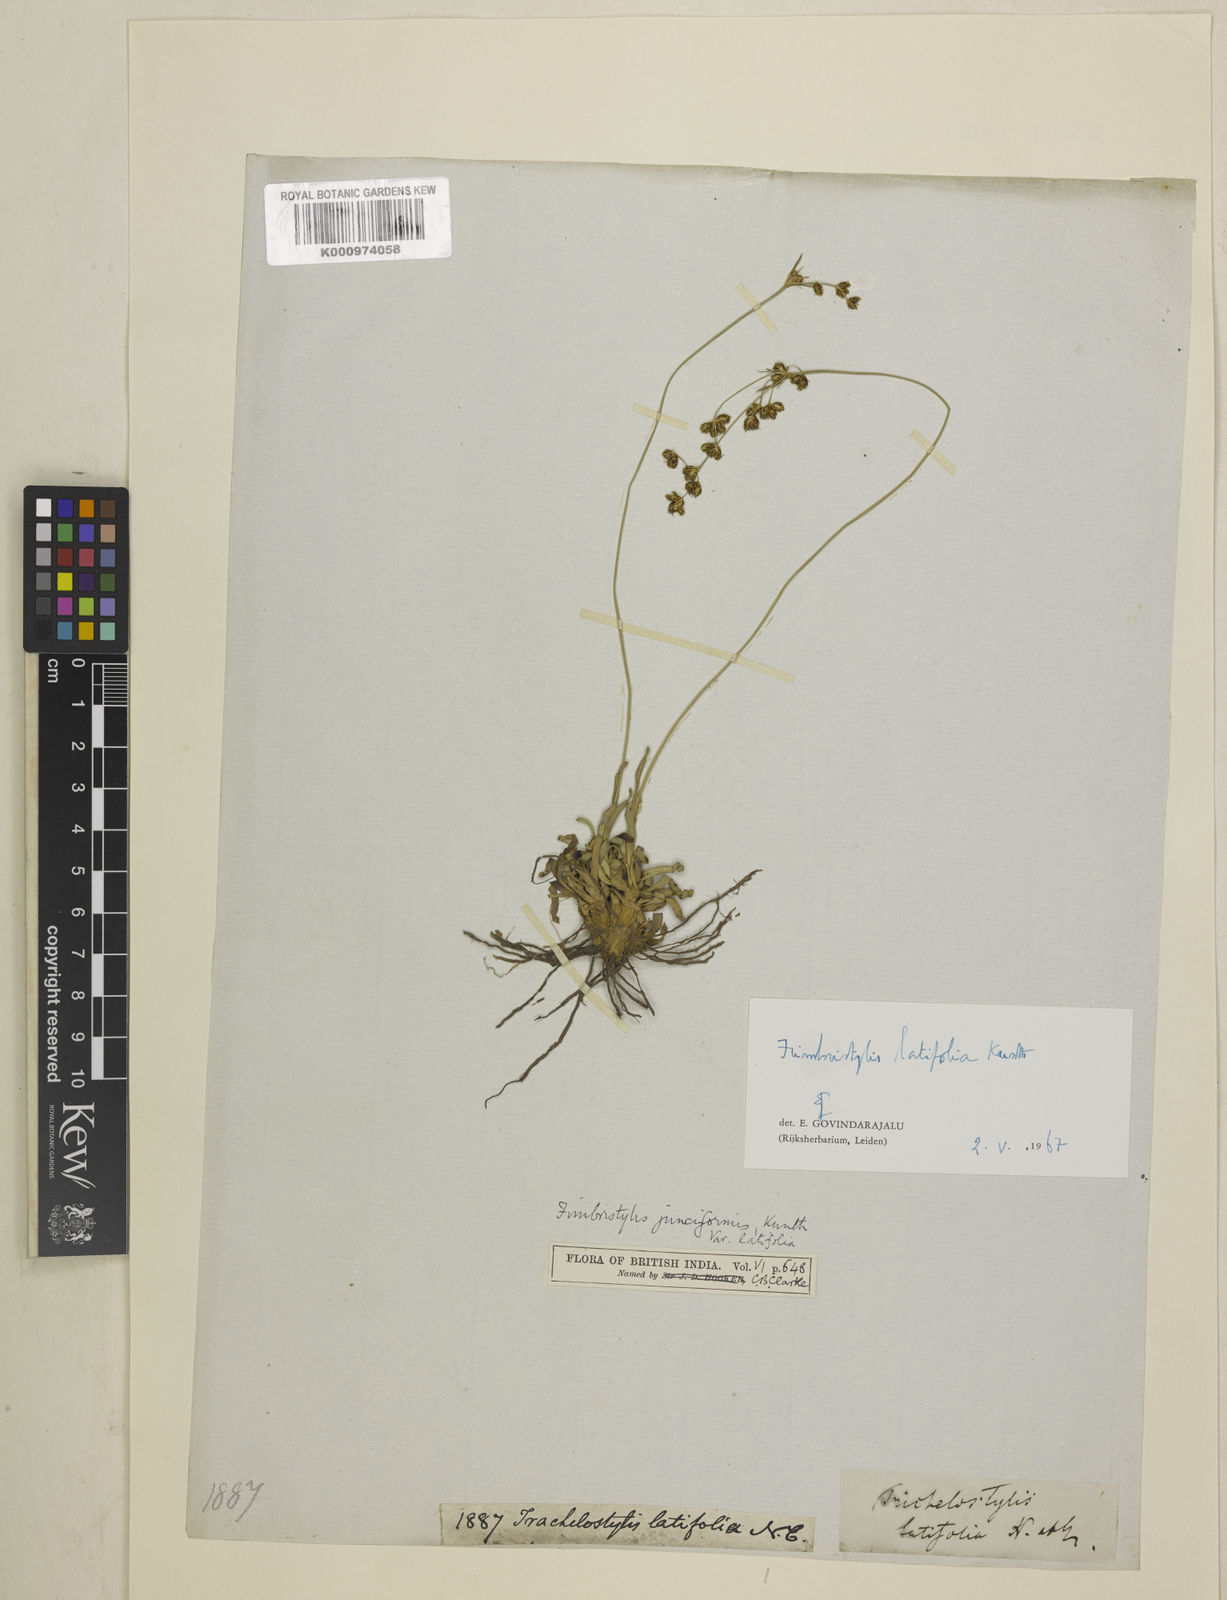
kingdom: Plantae
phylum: Tracheophyta
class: Liliopsida
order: Poales
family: Cyperaceae
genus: Fimbristylis
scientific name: Fimbristylis falcata
